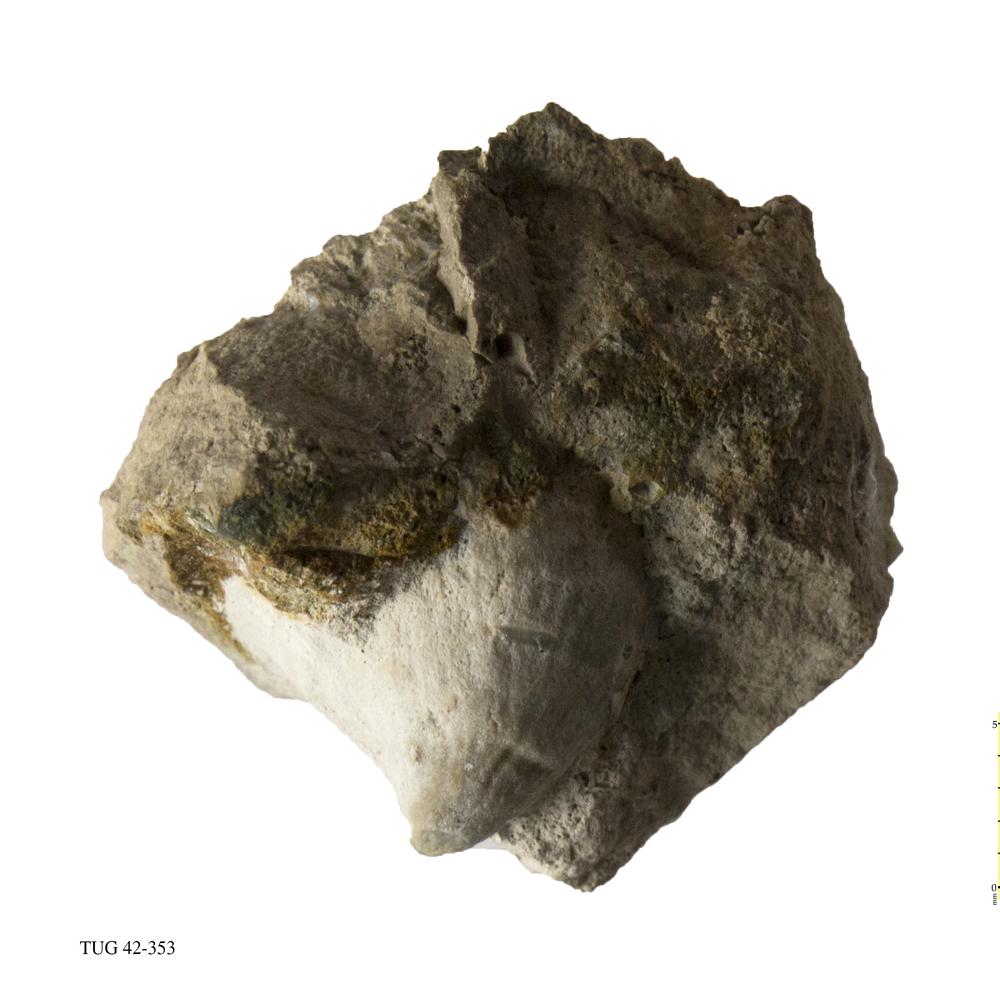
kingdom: Animalia
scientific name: Animalia
